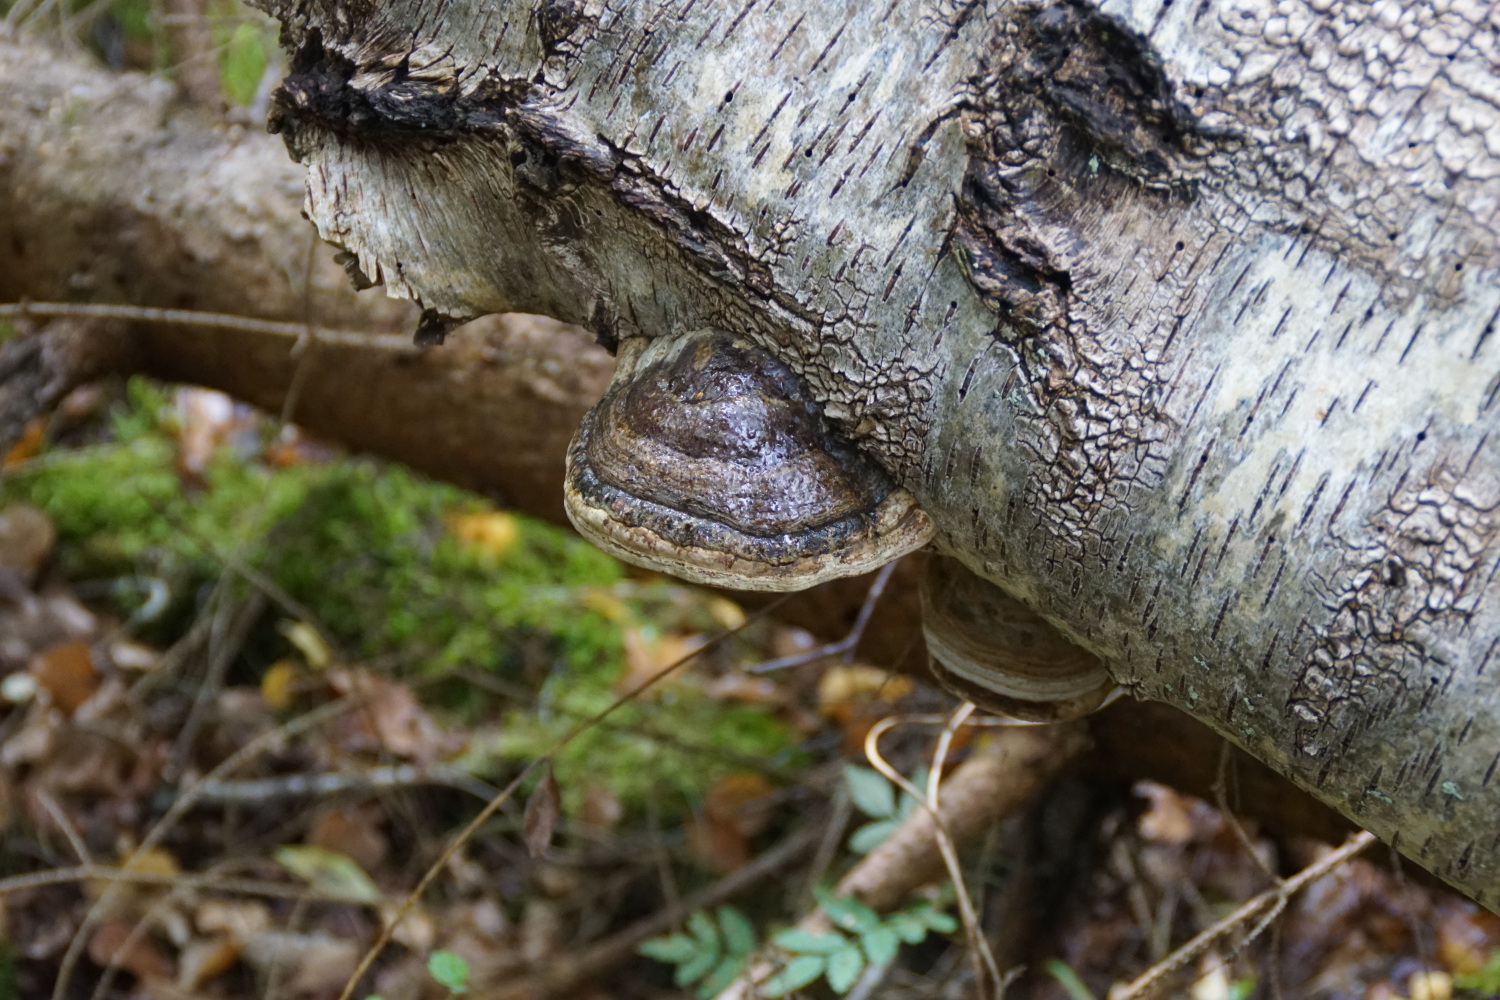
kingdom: Fungi
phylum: Basidiomycota
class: Agaricomycetes
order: Polyporales
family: Polyporaceae
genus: Fomes
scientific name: Fomes fomentarius
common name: tøndersvamp
